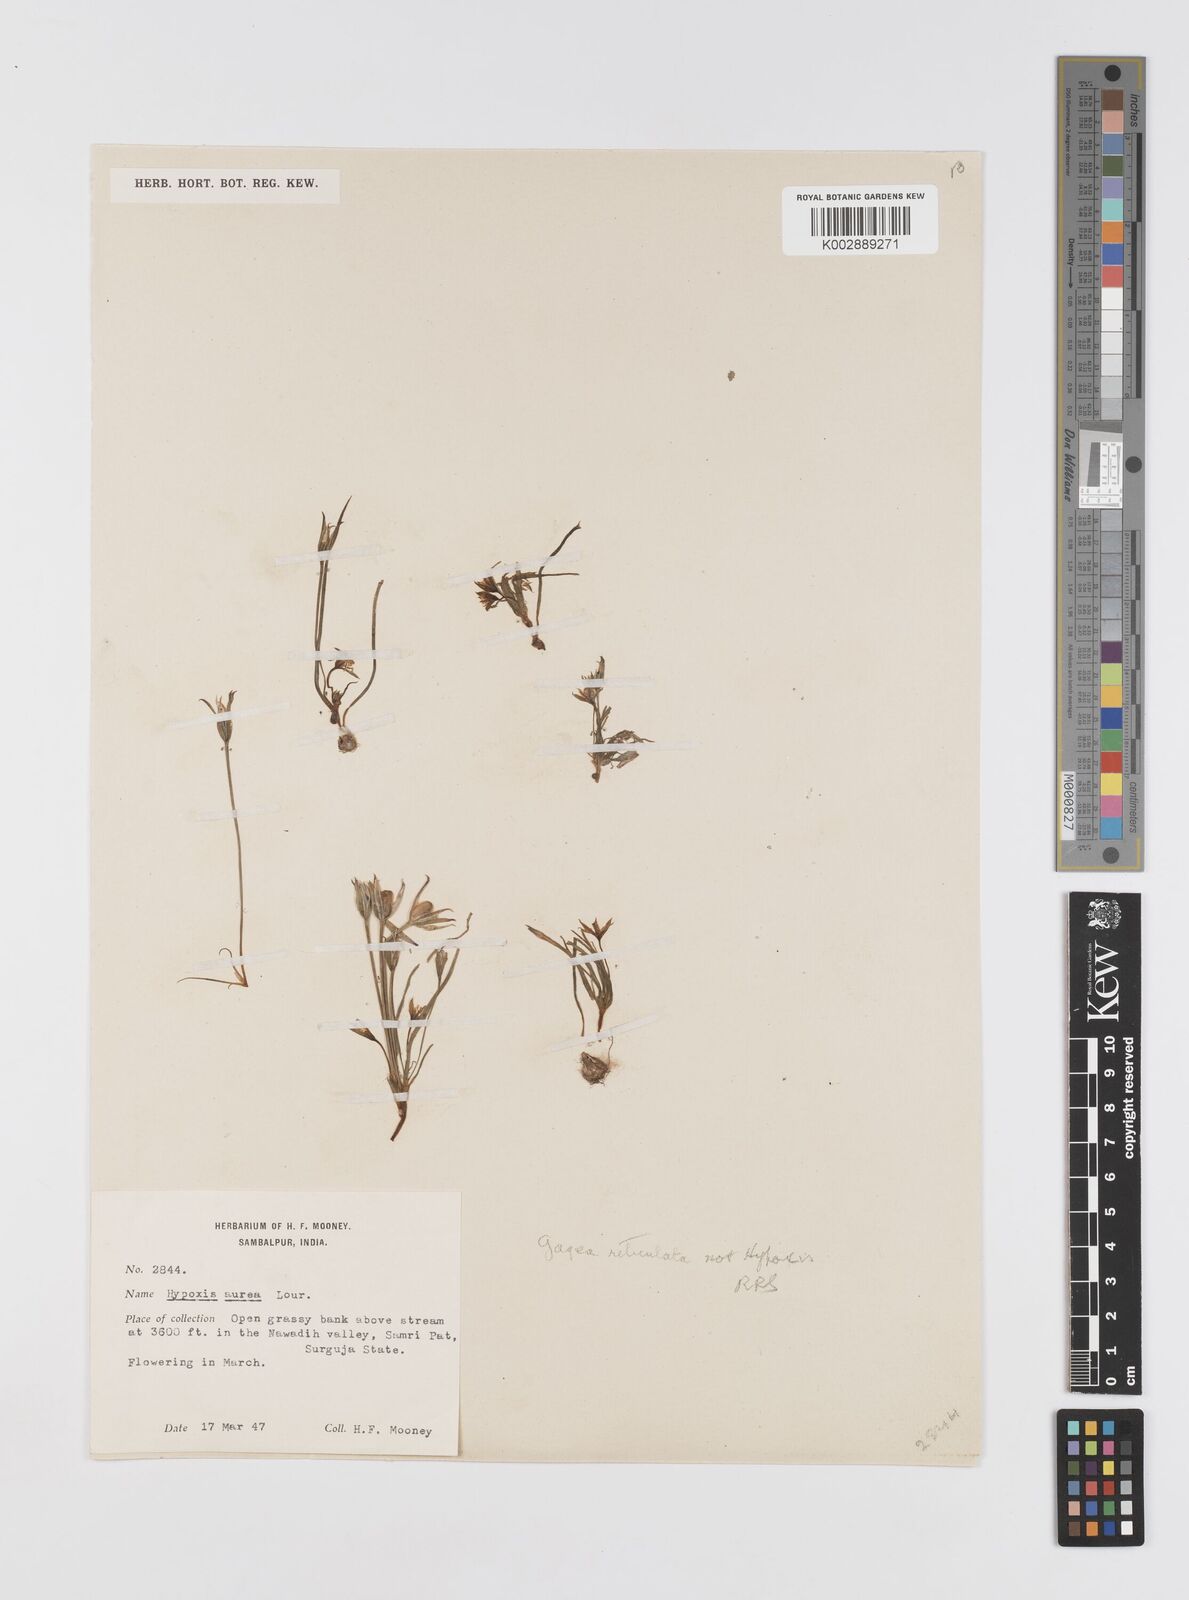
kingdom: Plantae
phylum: Tracheophyta
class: Liliopsida
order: Liliales
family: Liliaceae
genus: Gagea
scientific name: Gagea reticulata
